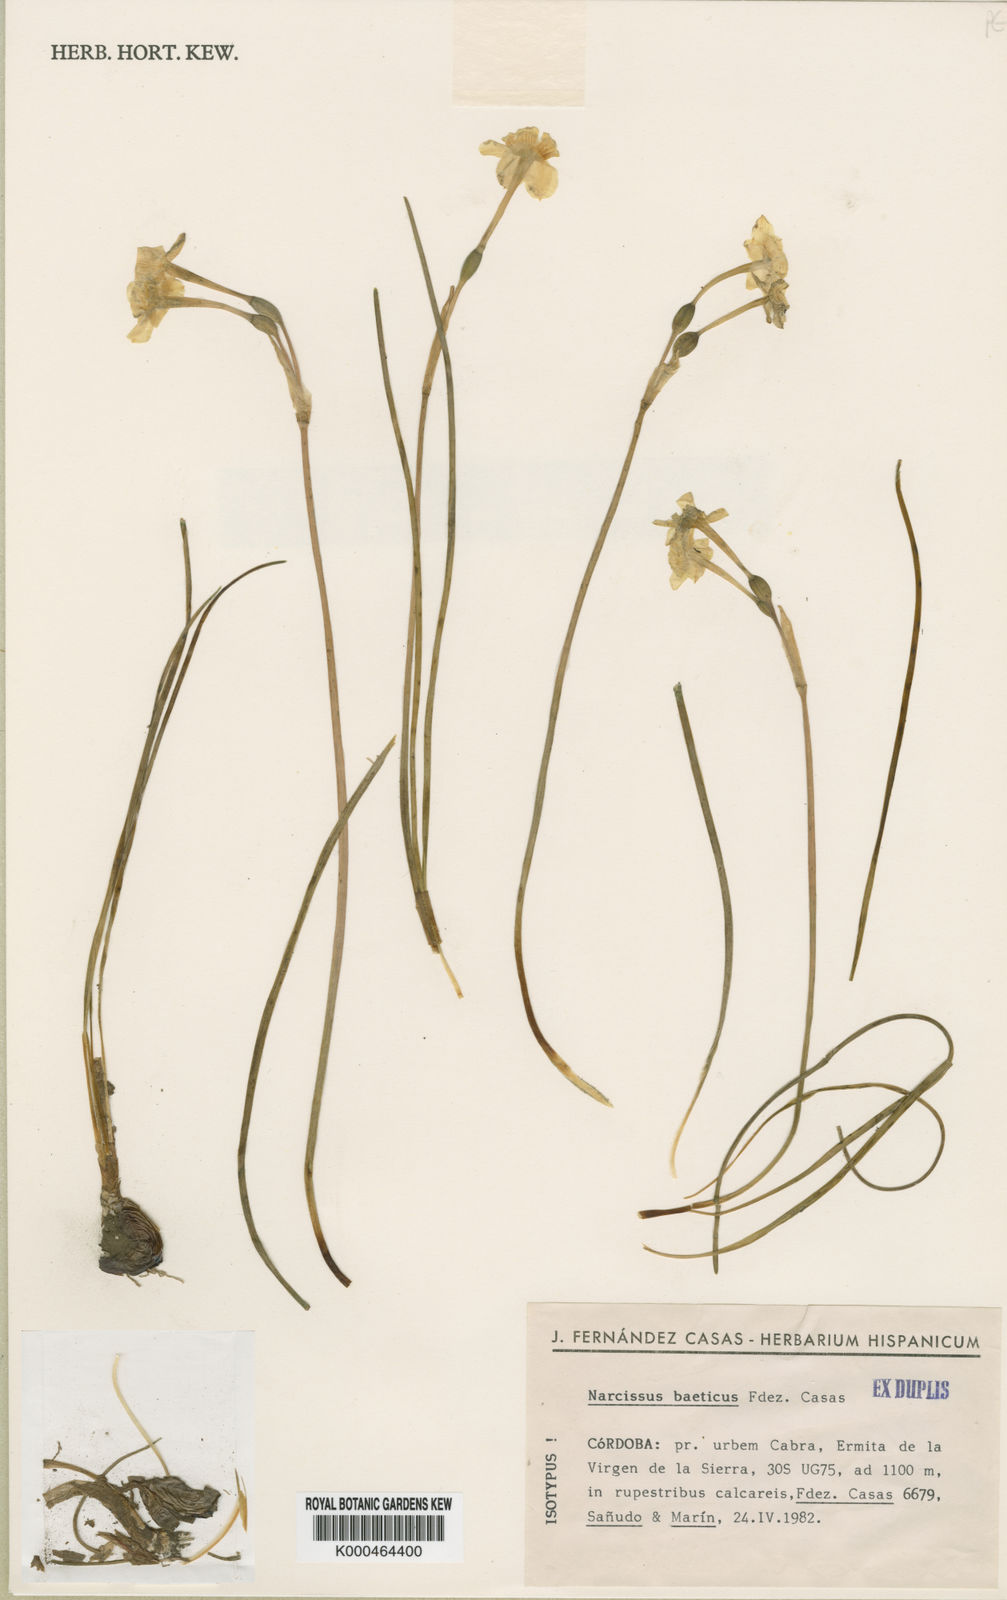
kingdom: Plantae
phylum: Tracheophyta
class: Liliopsida
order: Asparagales
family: Amaryllidaceae
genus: Narcissus
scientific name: Narcissus assoanus
